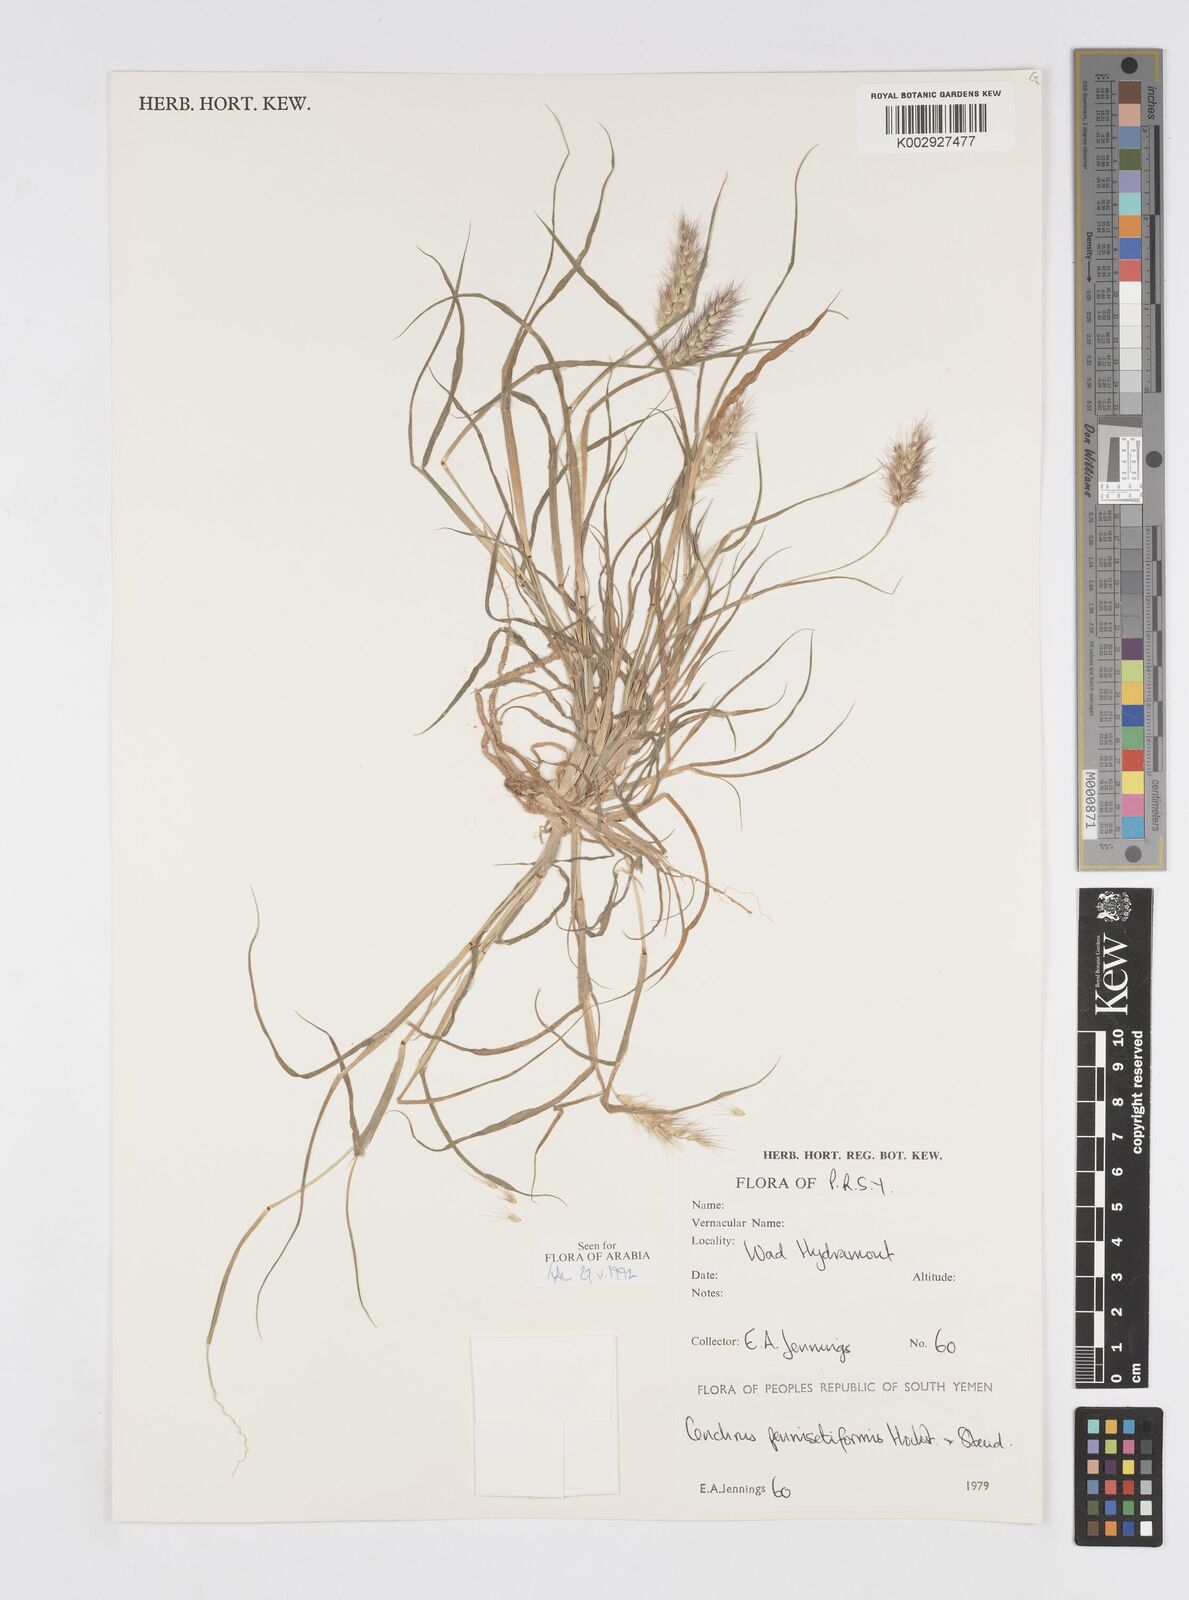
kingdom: Plantae
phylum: Tracheophyta
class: Liliopsida
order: Poales
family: Poaceae
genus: Cenchrus
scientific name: Cenchrus pennisetiformis
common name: Cloncurry
